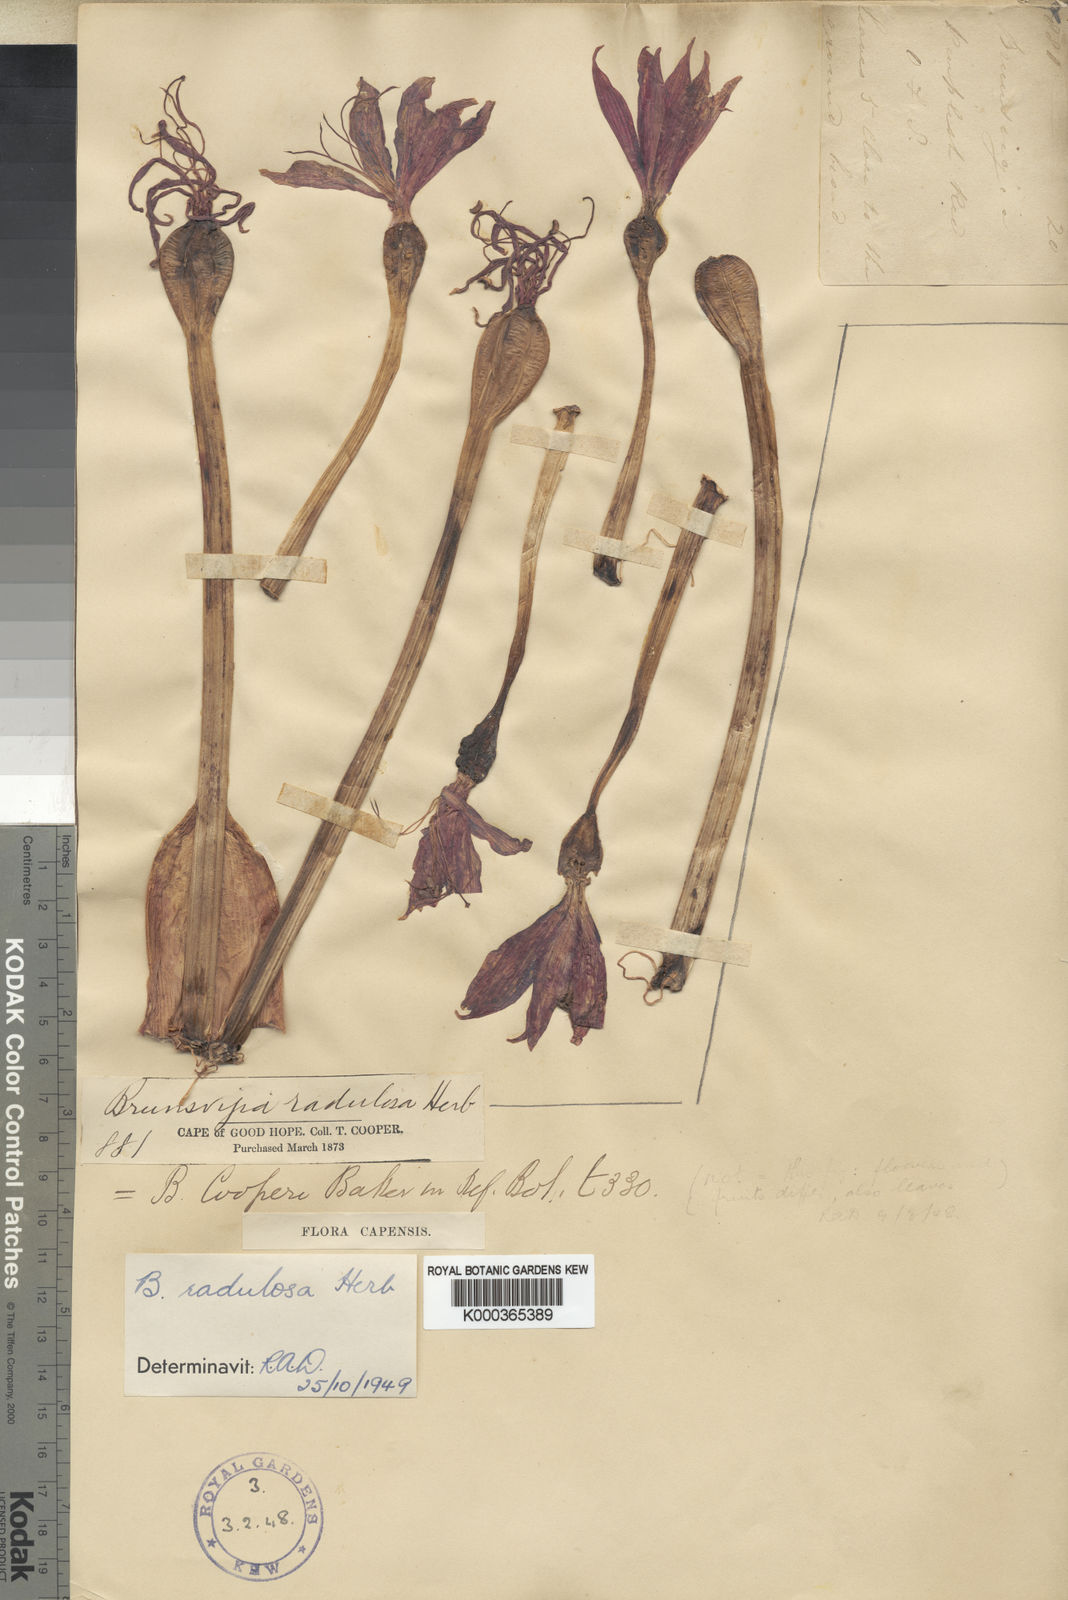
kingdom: Plantae
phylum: Tracheophyta
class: Liliopsida
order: Asparagales
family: Amaryllidaceae
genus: Brunsvigia
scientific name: Brunsvigia radulosa
